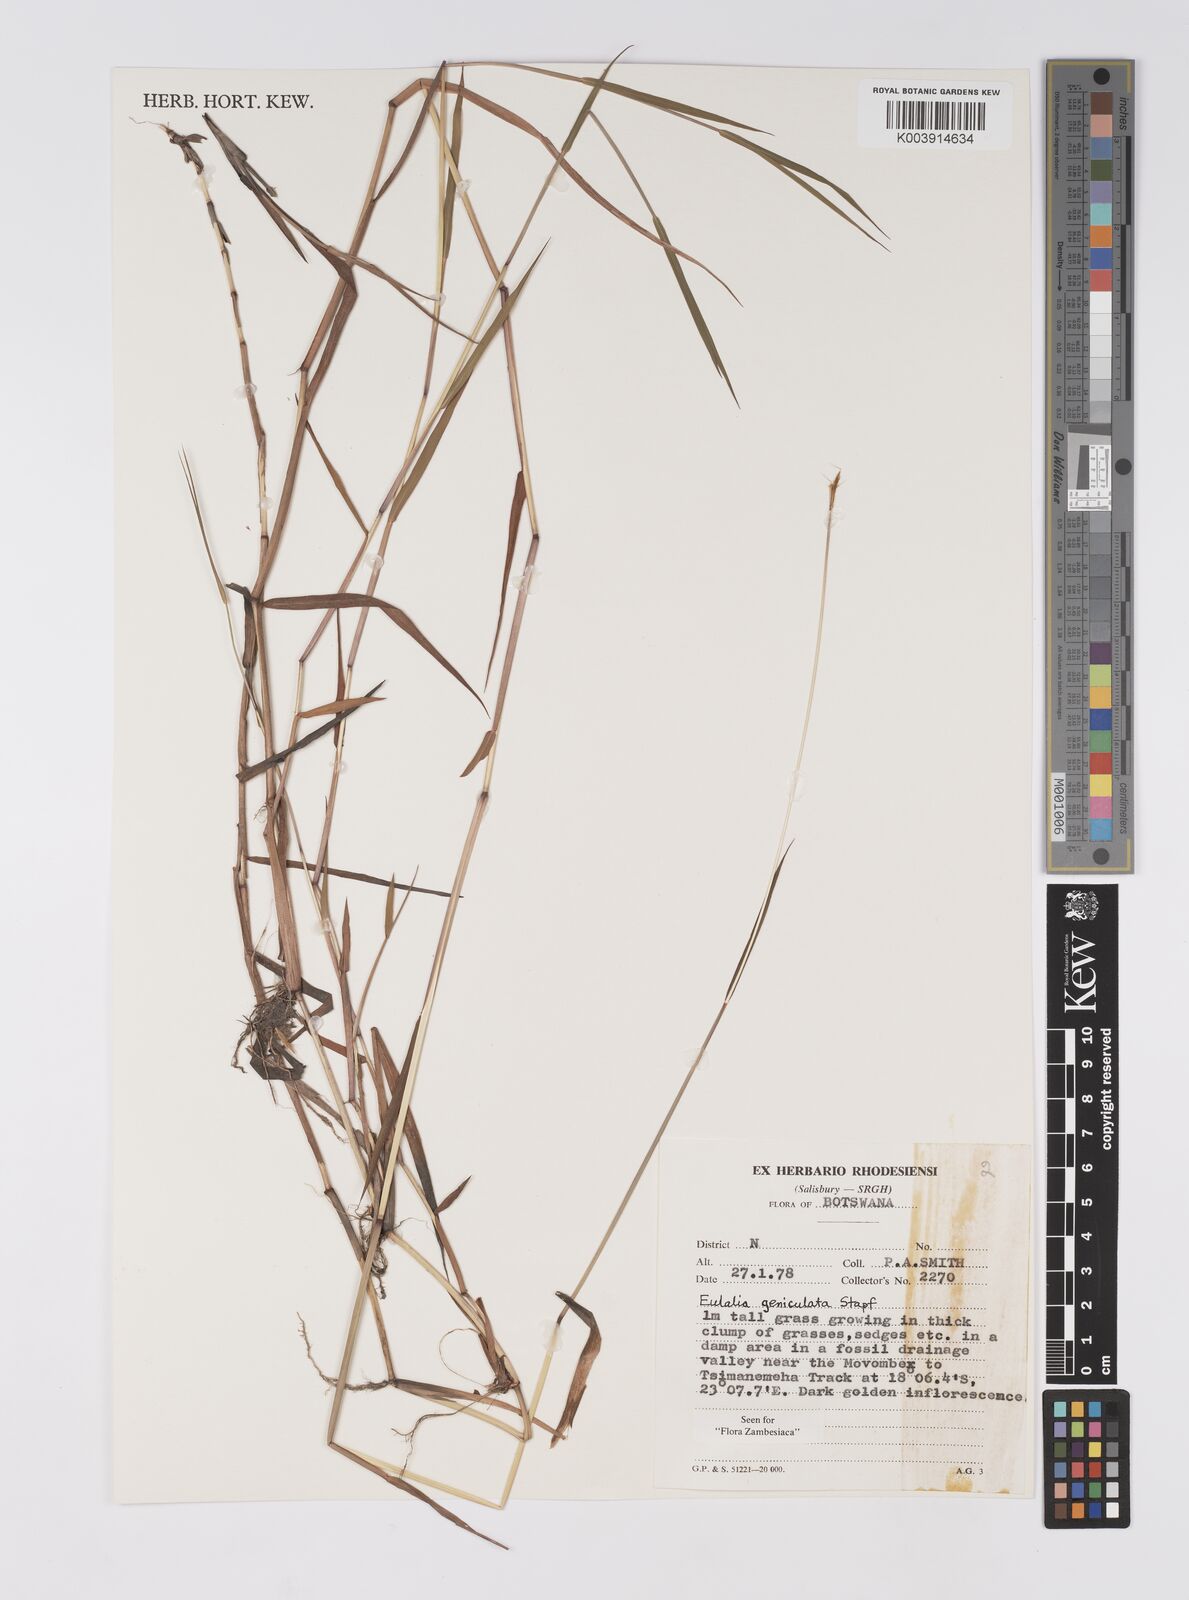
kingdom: Plantae
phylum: Tracheophyta
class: Liliopsida
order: Poales
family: Poaceae
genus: Eulalia
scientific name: Eulalia aurea
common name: Silky browntop
